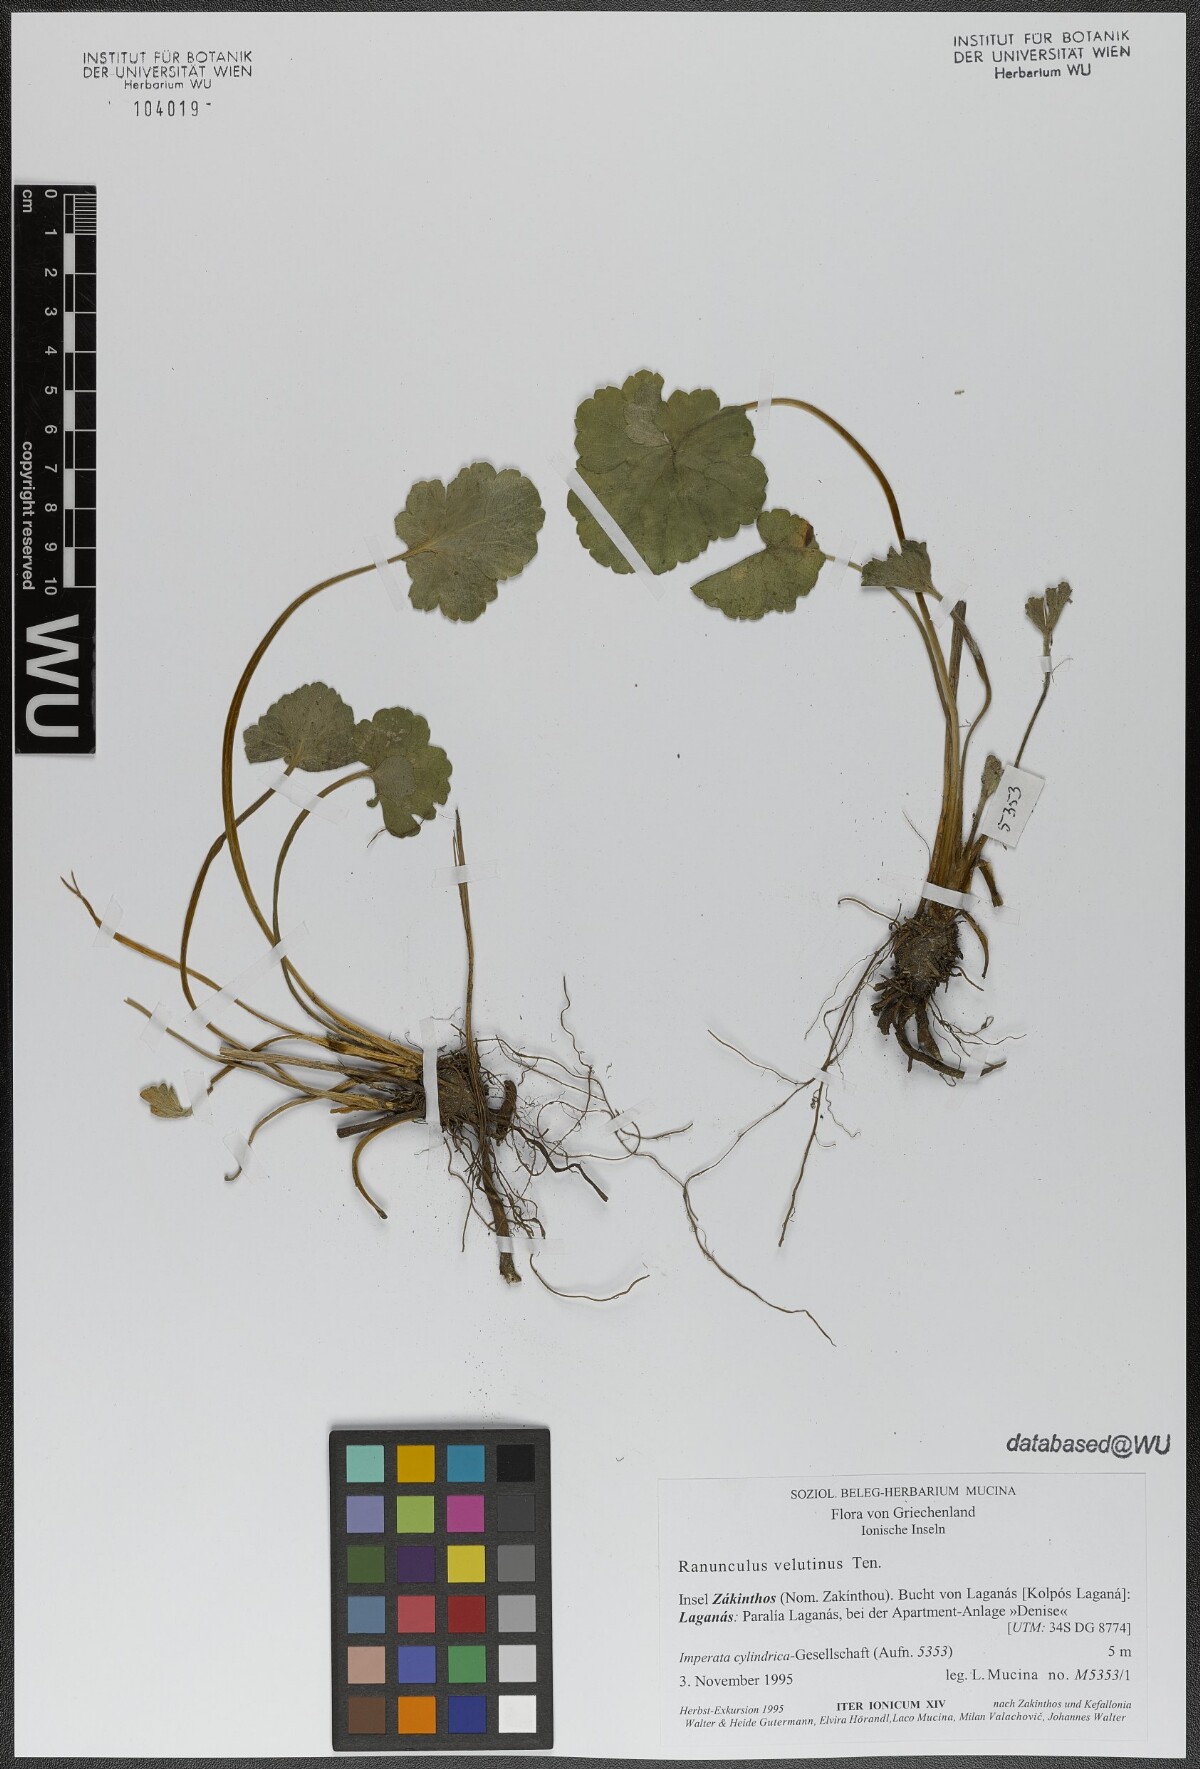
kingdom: Plantae
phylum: Tracheophyta
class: Magnoliopsida
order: Ranunculales
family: Ranunculaceae
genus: Ranunculus
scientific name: Ranunculus velutinus
